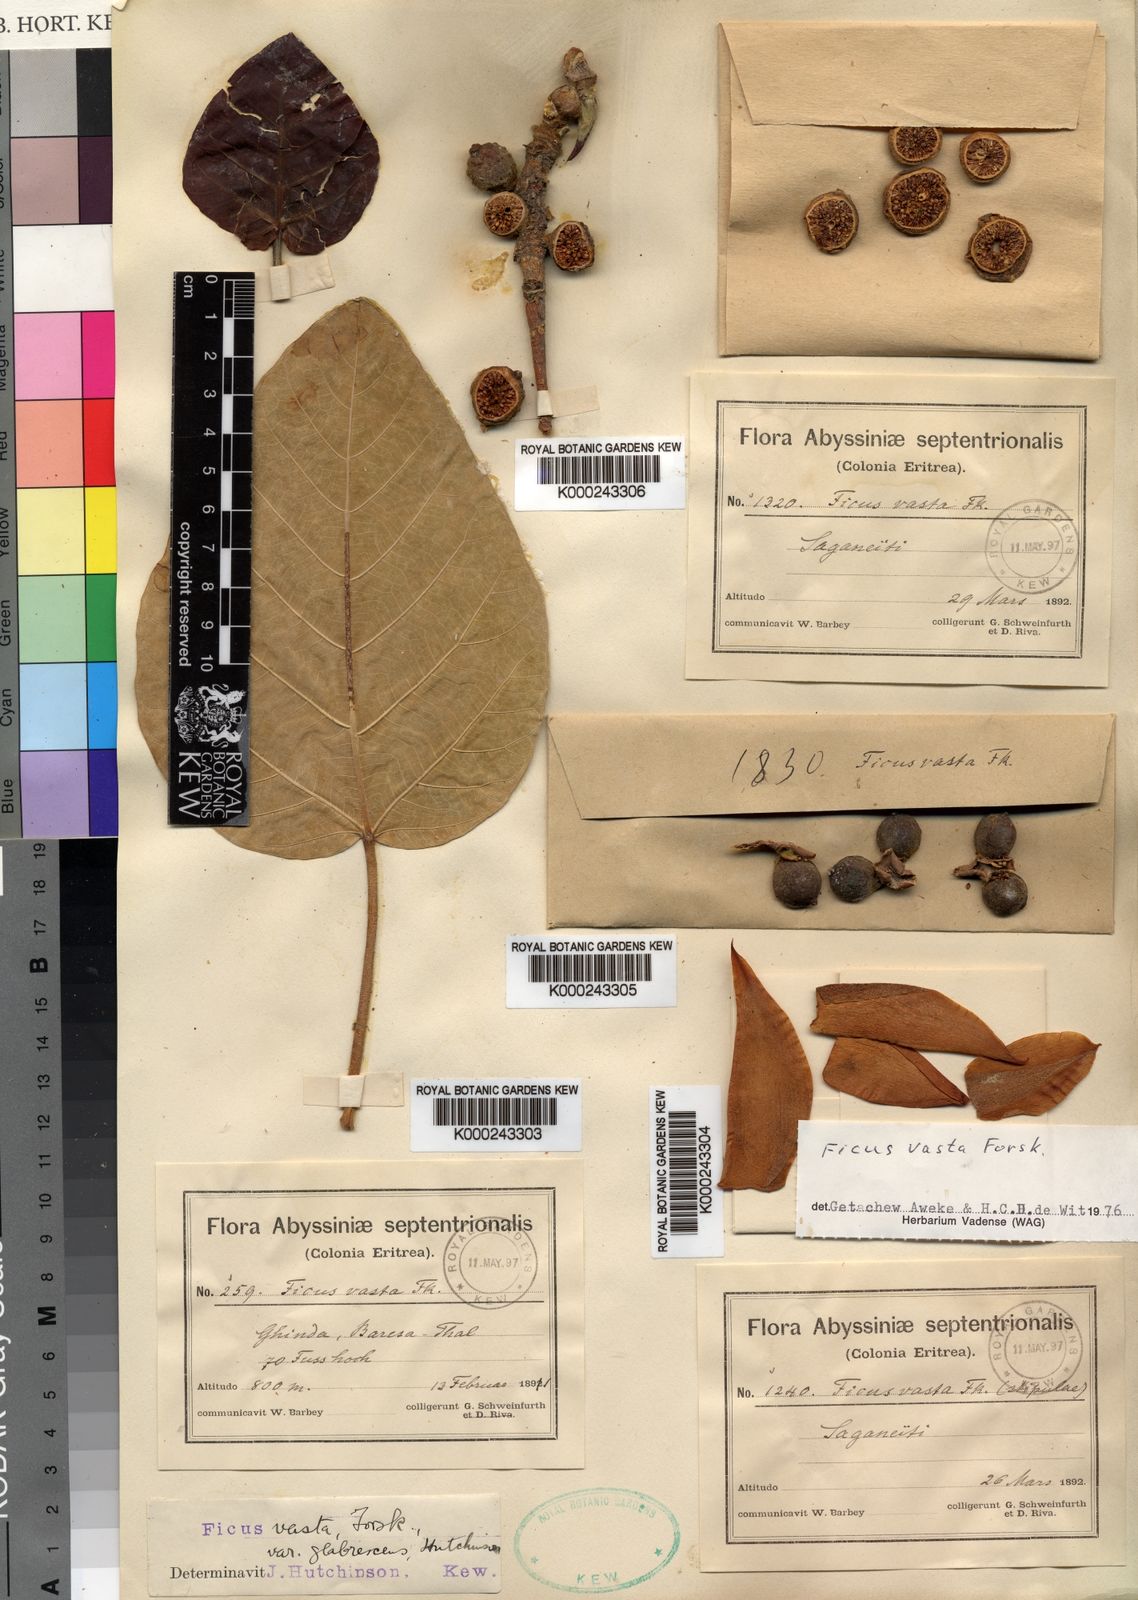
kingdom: Plantae
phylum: Tracheophyta
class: Magnoliopsida
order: Rosales
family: Moraceae
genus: Ficus
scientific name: Ficus
